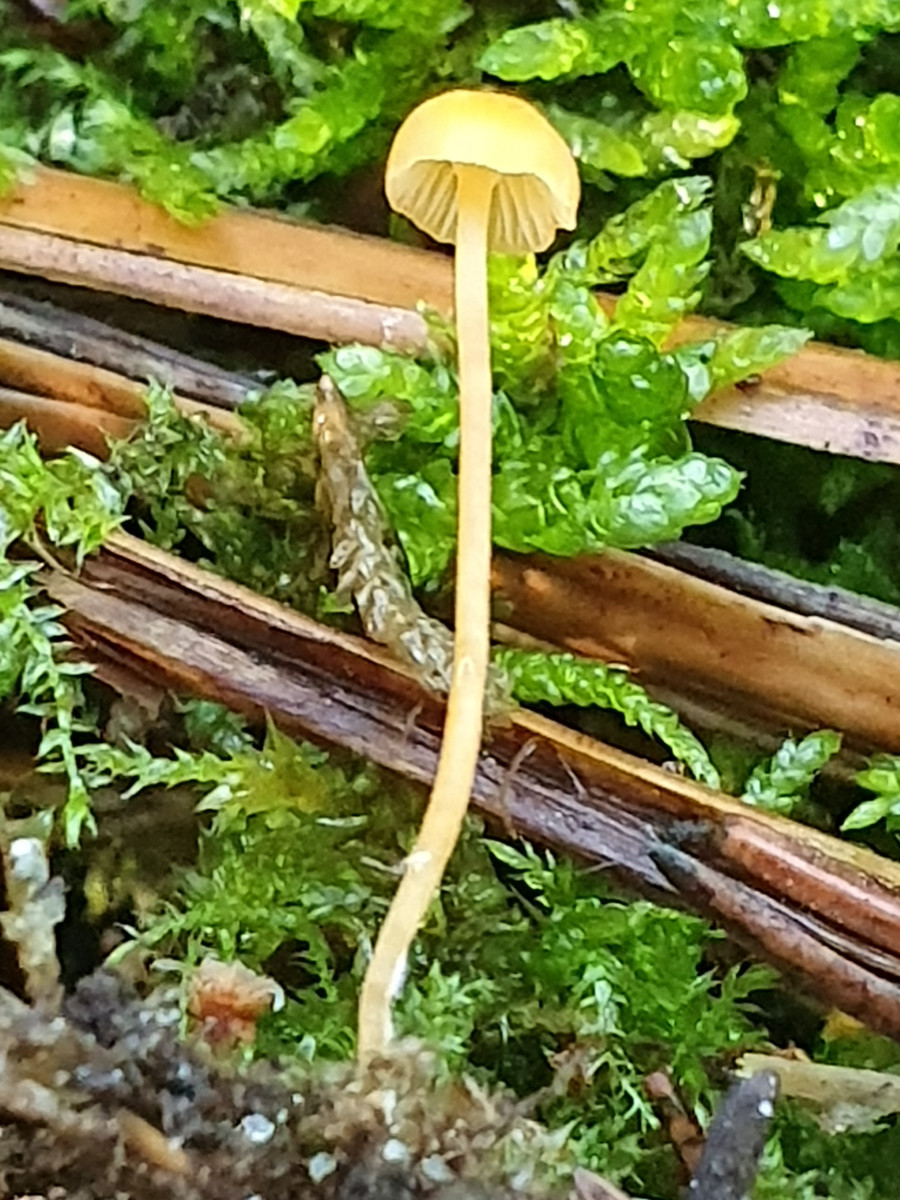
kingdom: Fungi
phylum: Basidiomycota
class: Agaricomycetes
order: Hymenochaetales
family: Rickenellaceae
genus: Rickenella
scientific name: Rickenella fibula
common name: orange mosnavlehat
